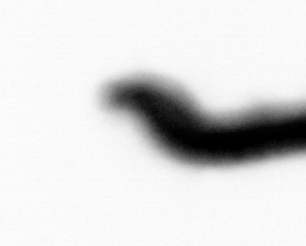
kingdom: Animalia
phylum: Annelida
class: Polychaeta
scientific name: Polychaeta
